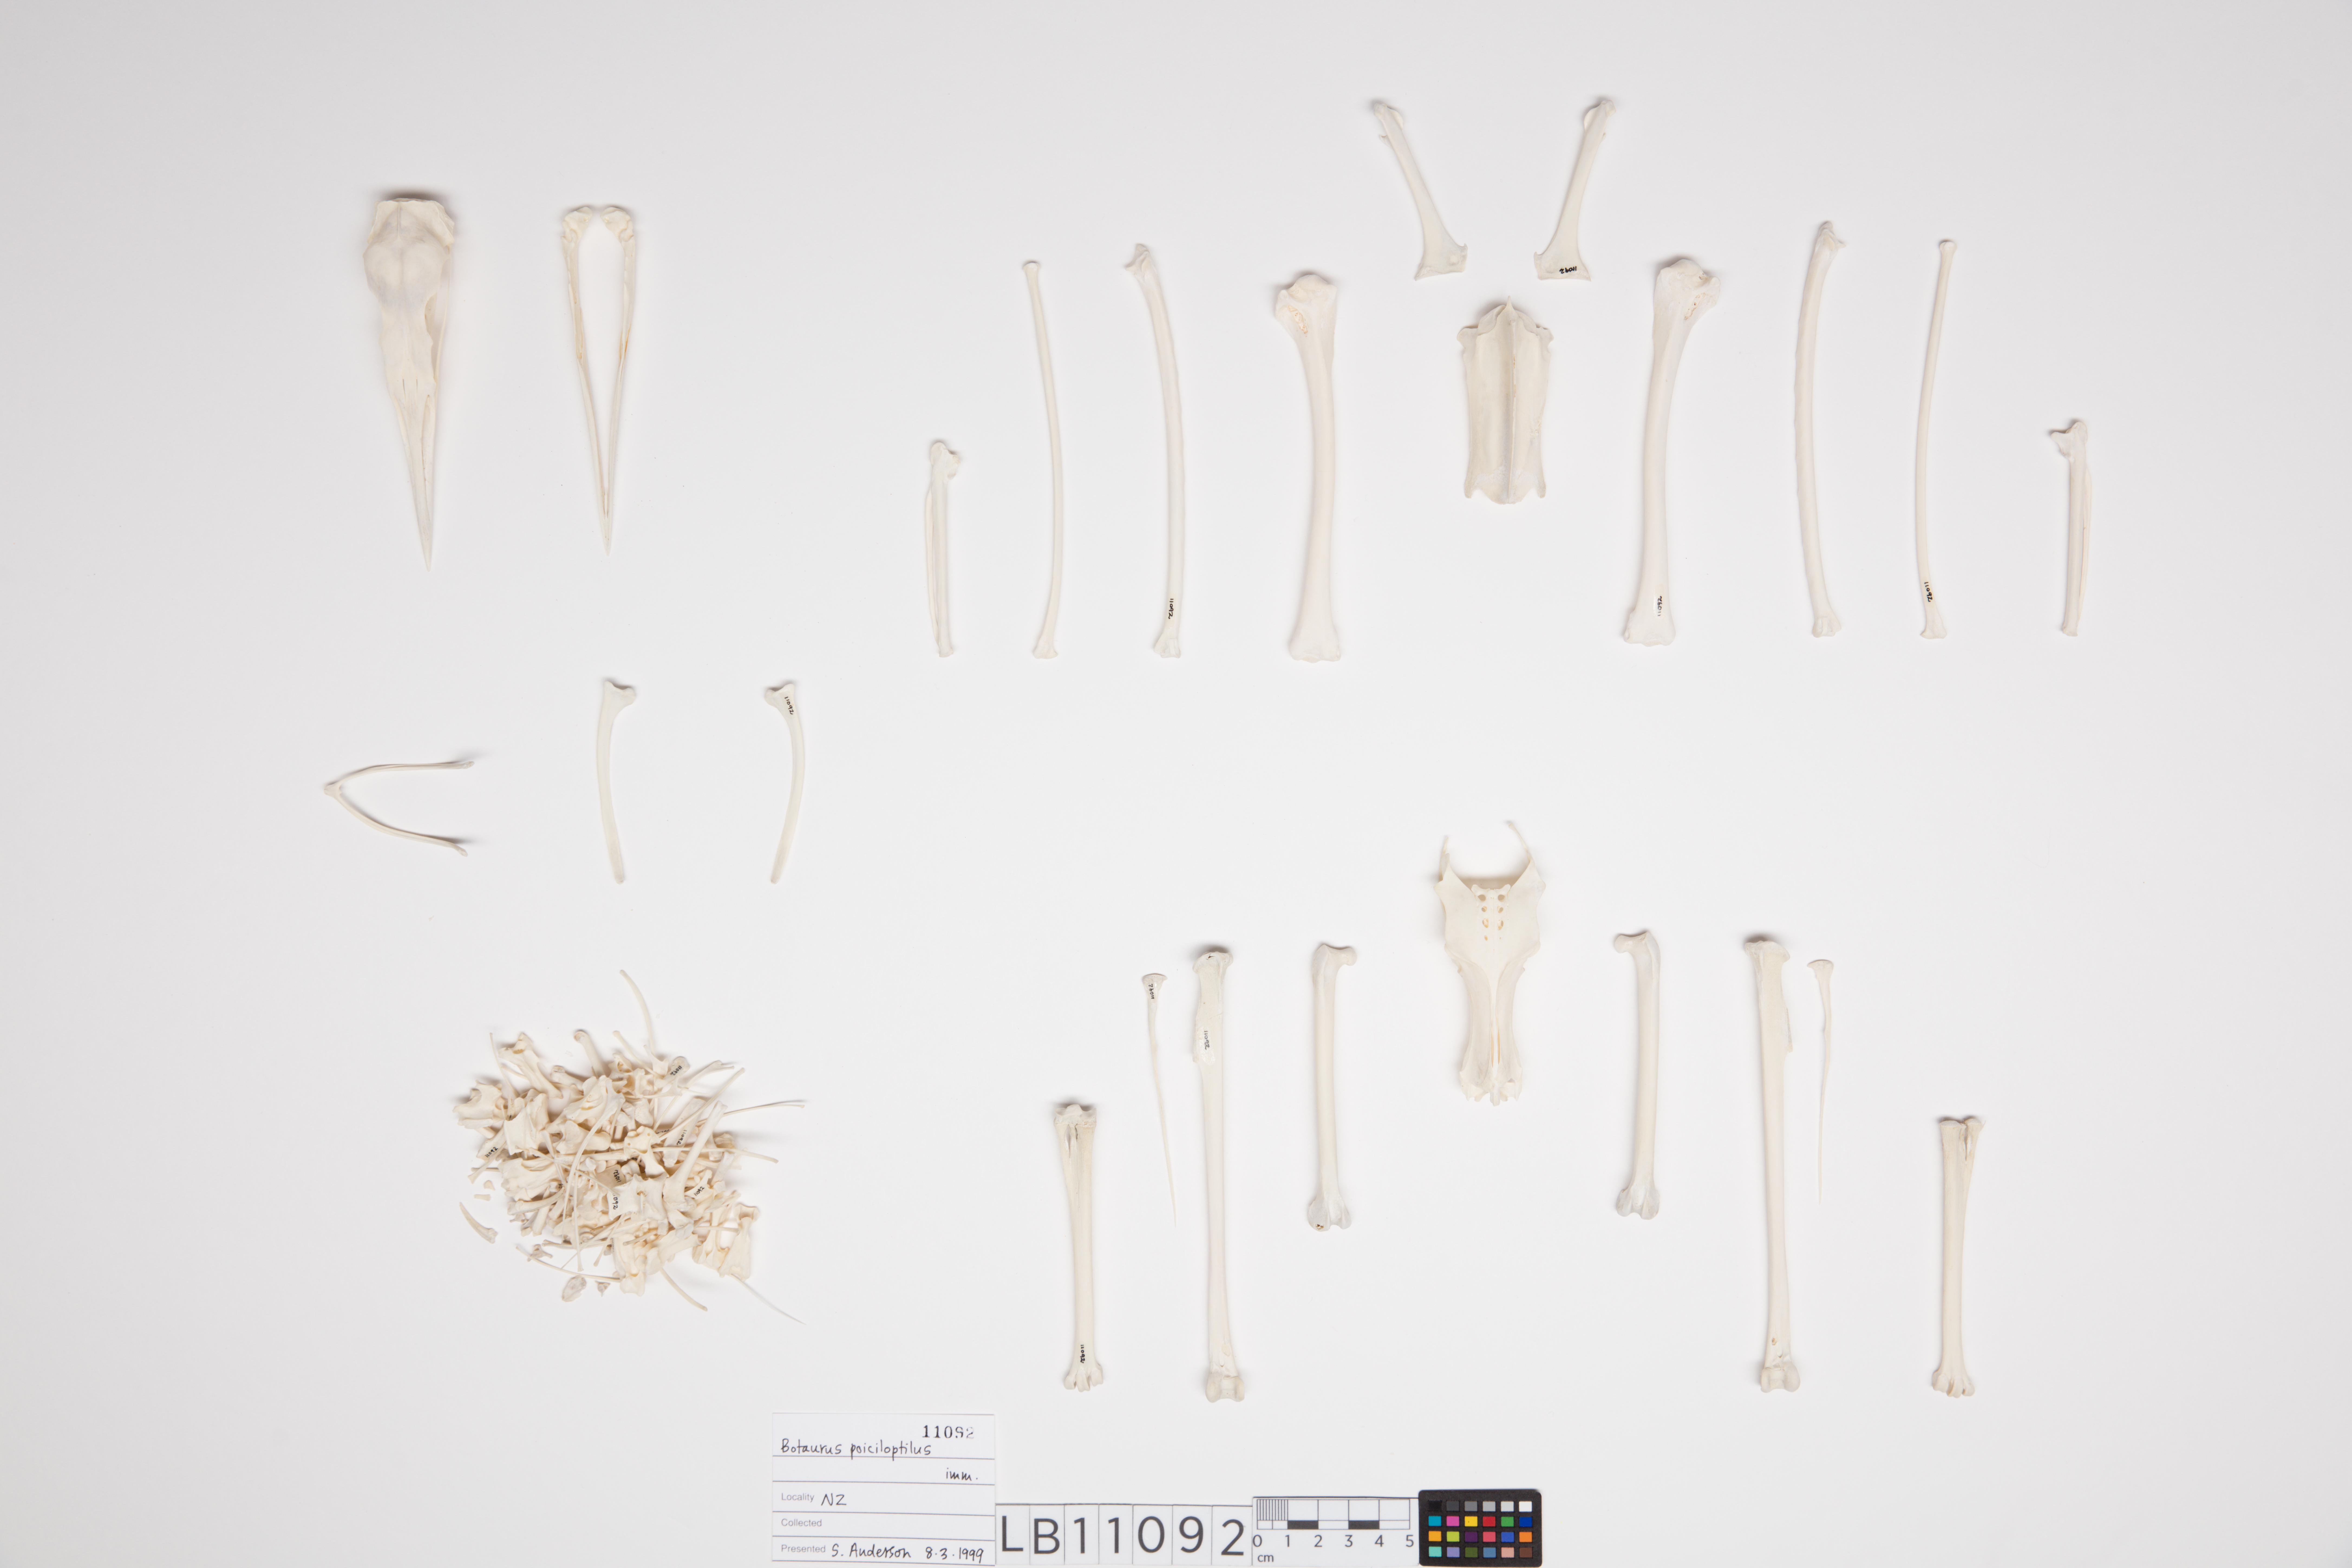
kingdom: Animalia
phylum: Chordata
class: Aves
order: Pelecaniformes
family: Ardeidae
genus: Botaurus
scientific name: Botaurus poiciloptilus
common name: Australasian bittern
